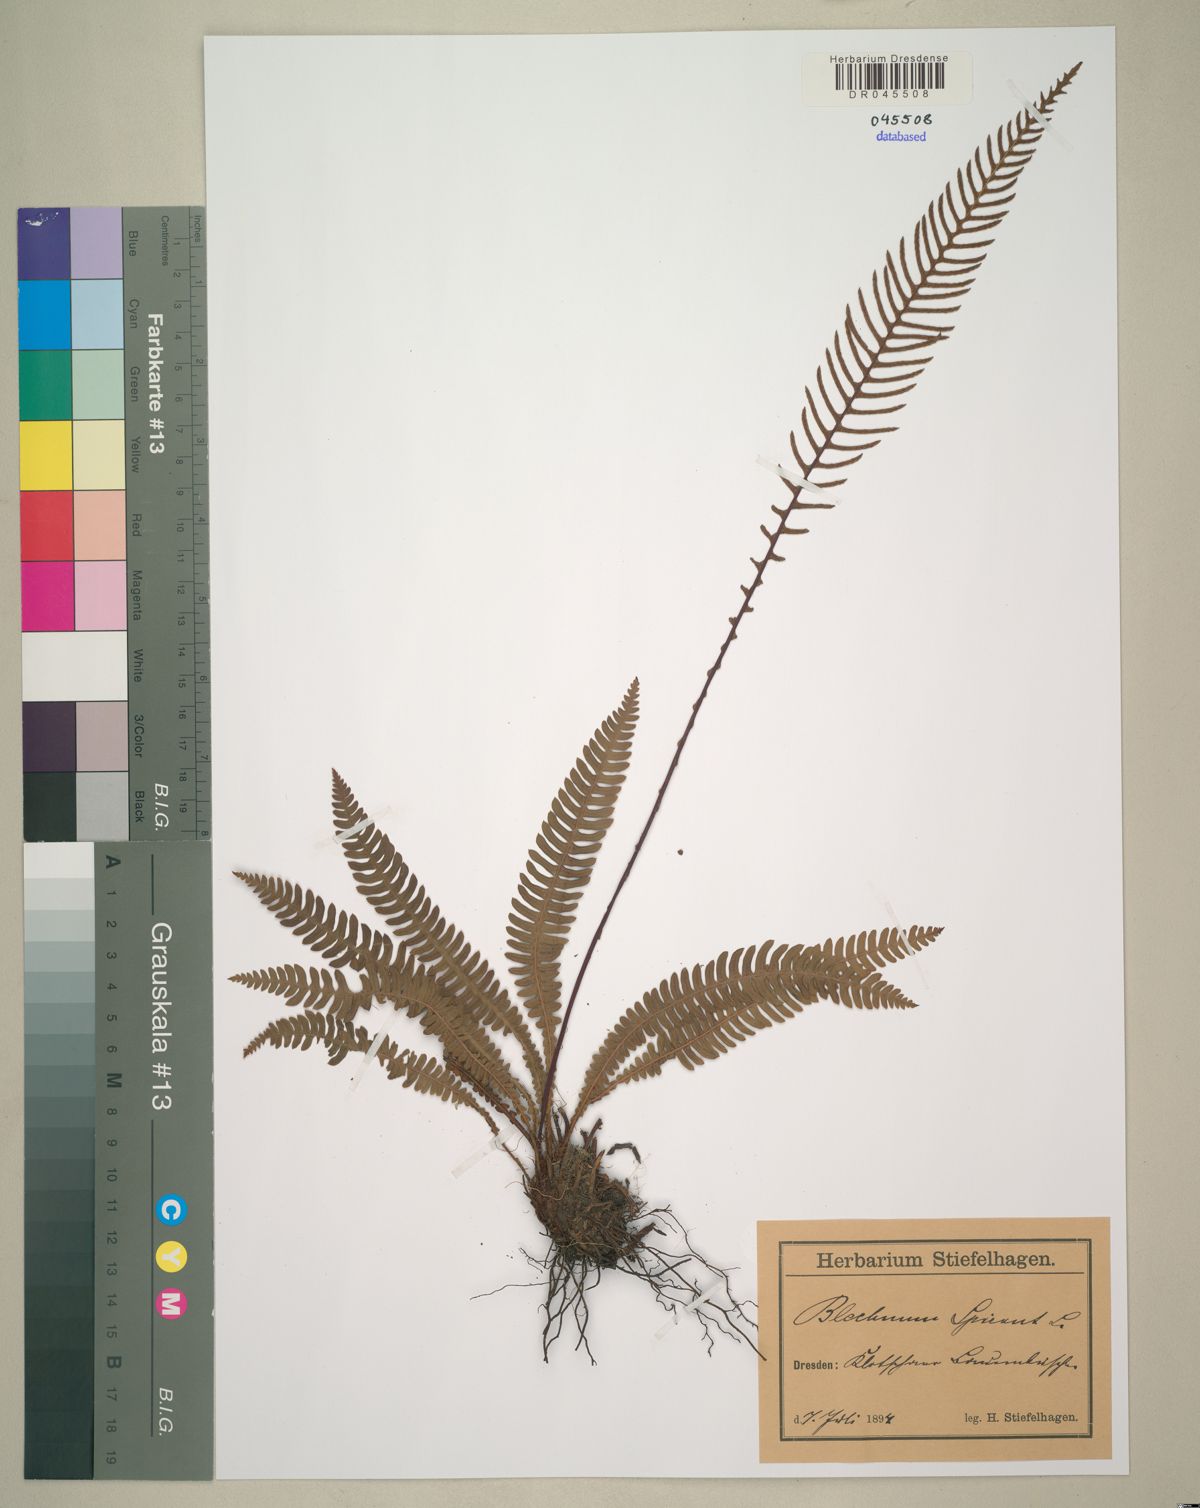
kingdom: Plantae
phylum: Tracheophyta
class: Polypodiopsida
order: Polypodiales
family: Blechnaceae
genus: Struthiopteris
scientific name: Struthiopteris spicant
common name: Deer fern
